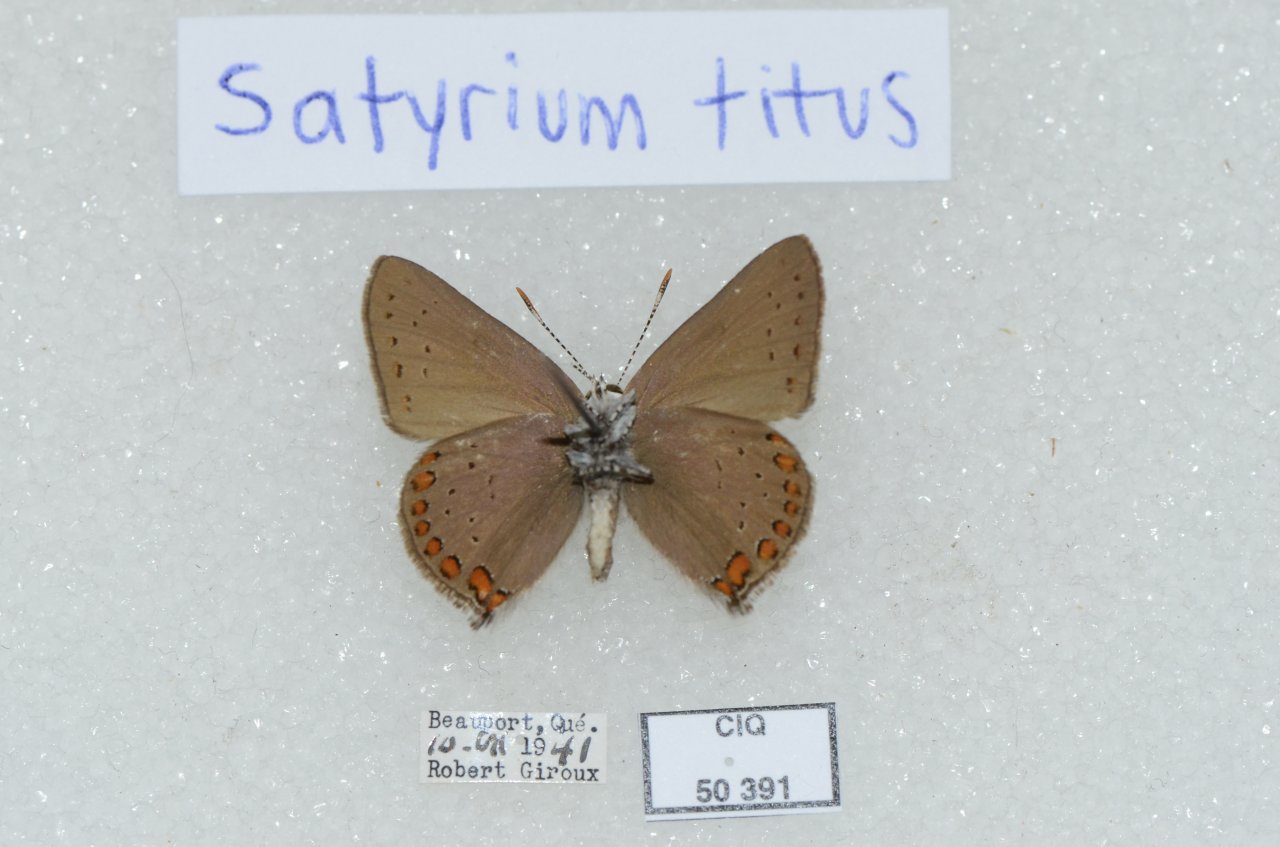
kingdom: Animalia
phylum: Arthropoda
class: Insecta
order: Lepidoptera
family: Lycaenidae
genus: Harkenclenus
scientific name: Harkenclenus titus
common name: Coral Hairstreak
